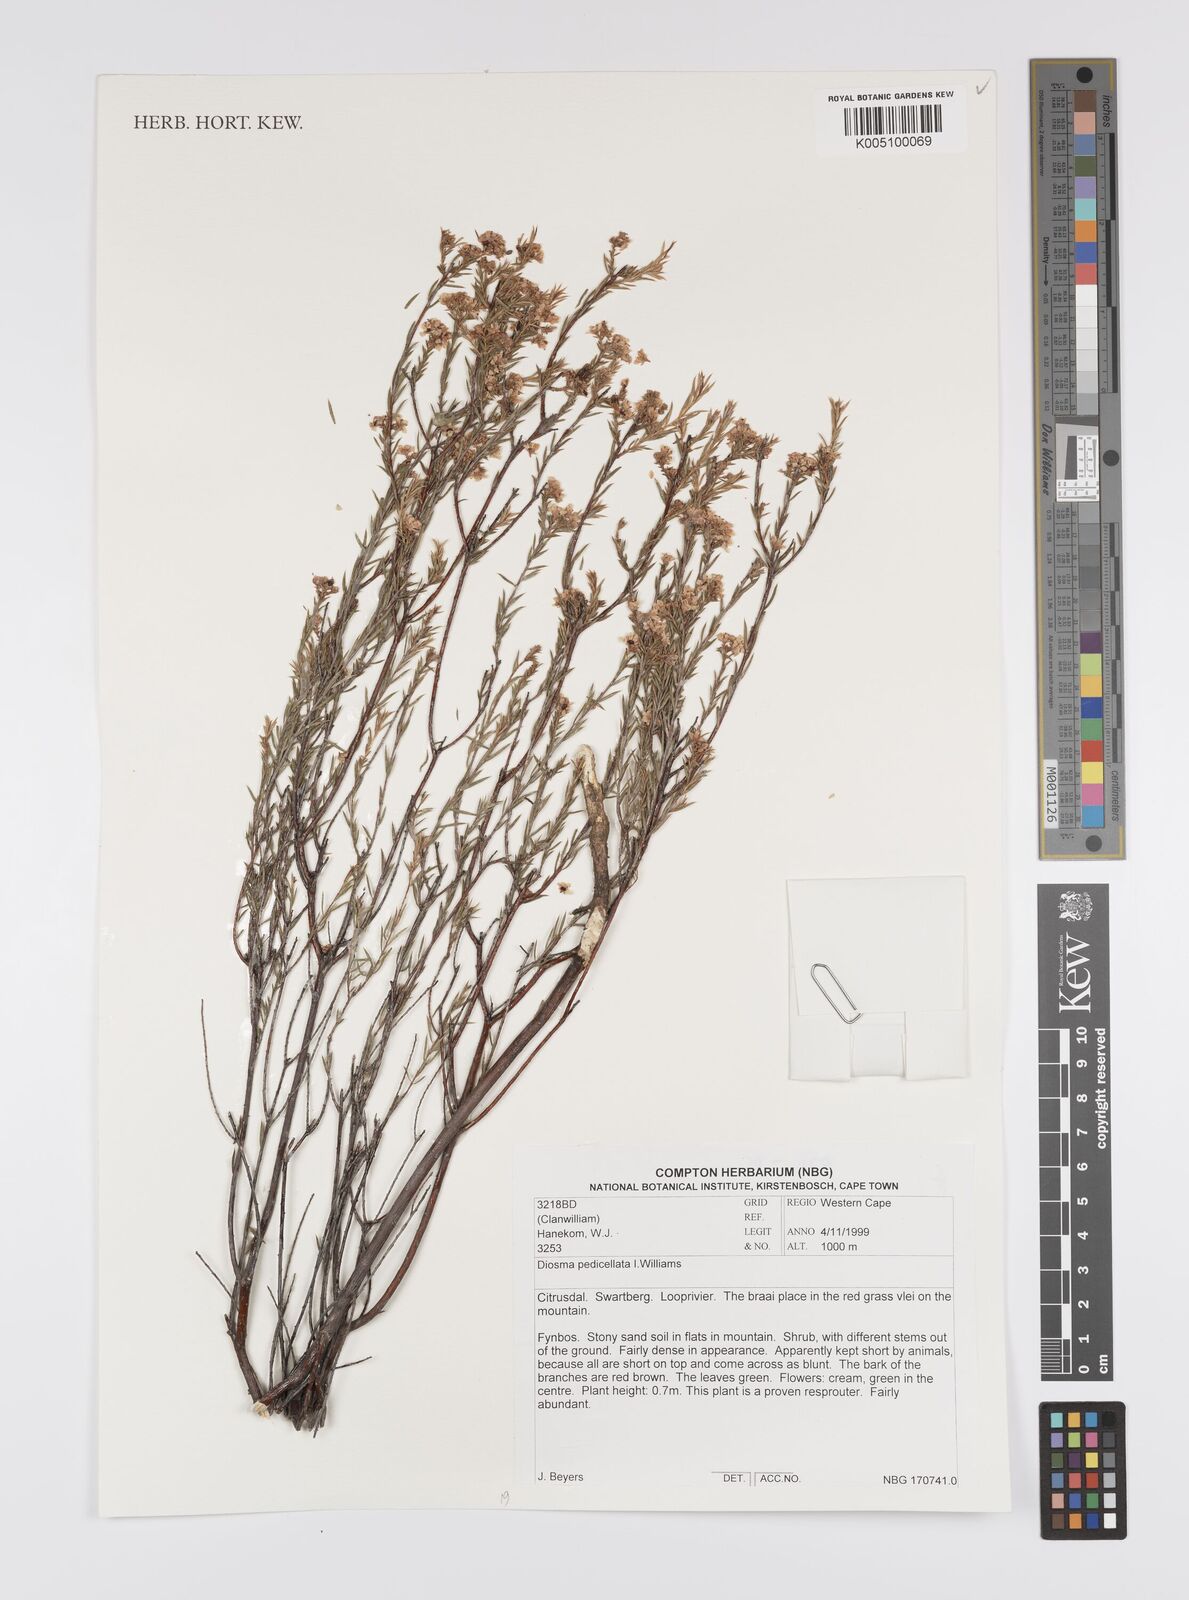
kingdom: Plantae
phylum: Tracheophyta
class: Magnoliopsida
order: Sapindales
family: Rutaceae
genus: Diosma
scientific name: Diosma pedicellata
